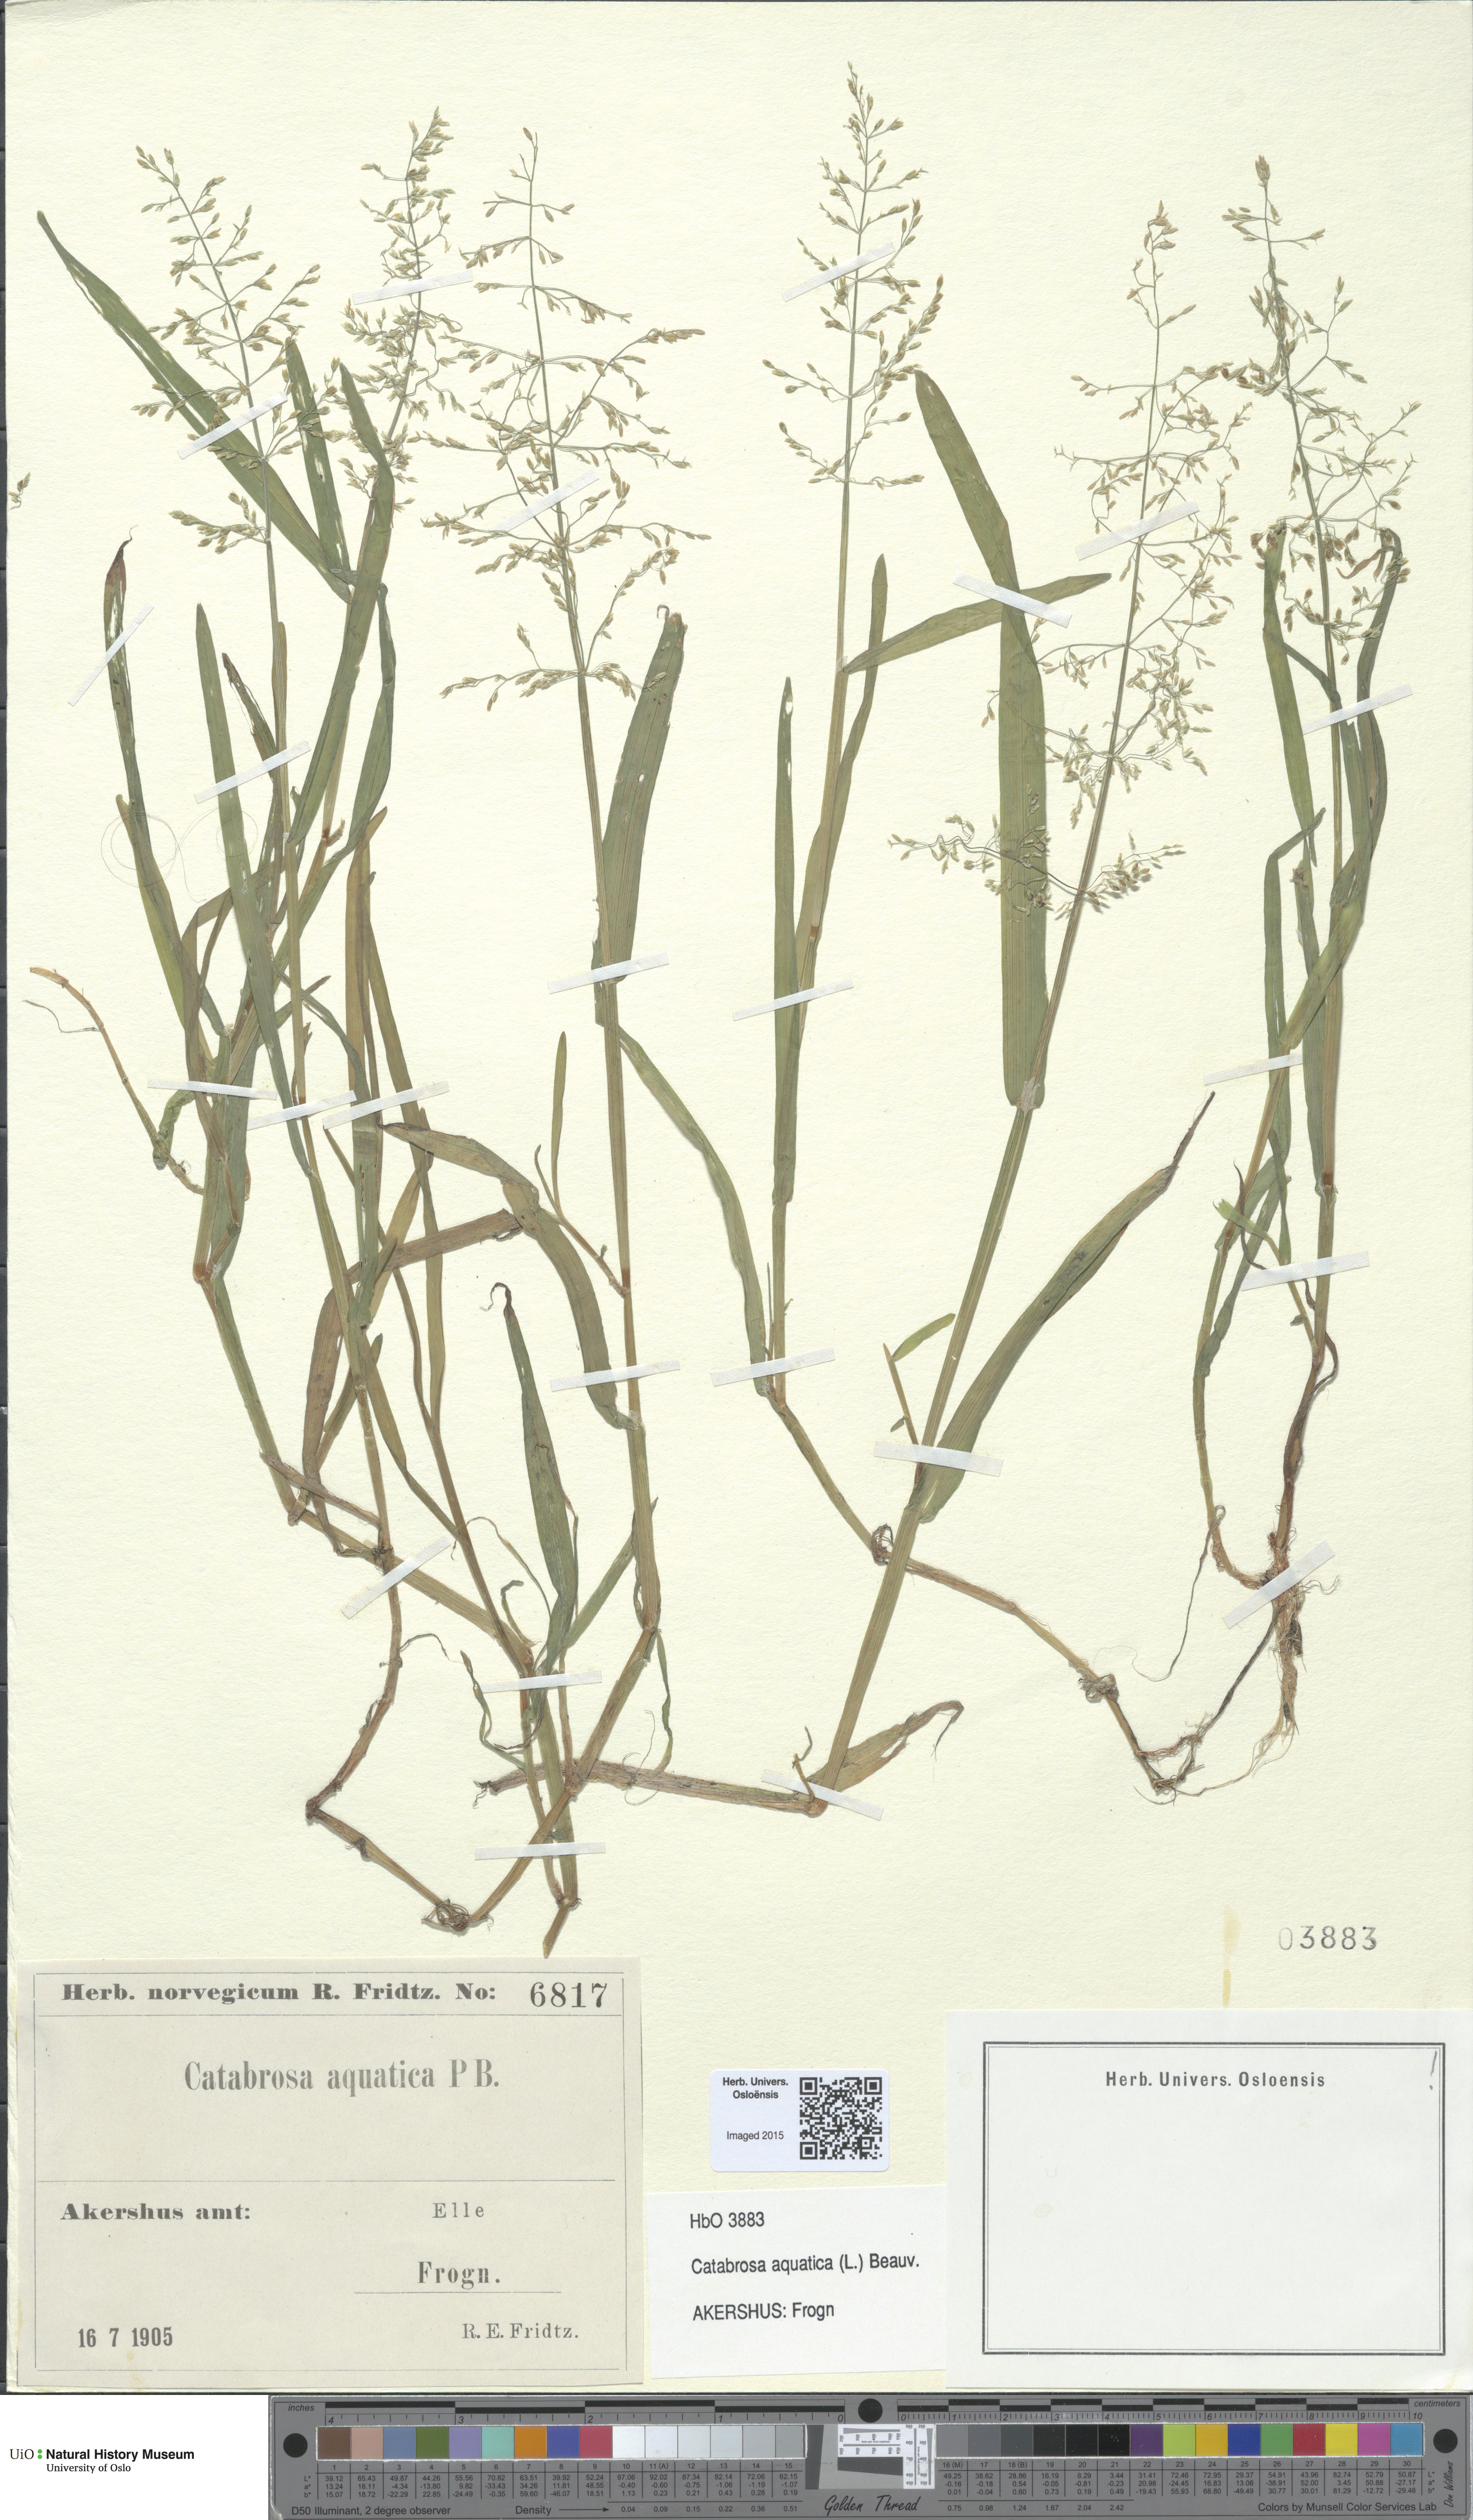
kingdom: Plantae
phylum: Tracheophyta
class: Liliopsida
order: Poales
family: Poaceae
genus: Catabrosa
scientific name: Catabrosa aquatica
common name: Whorl-grass
